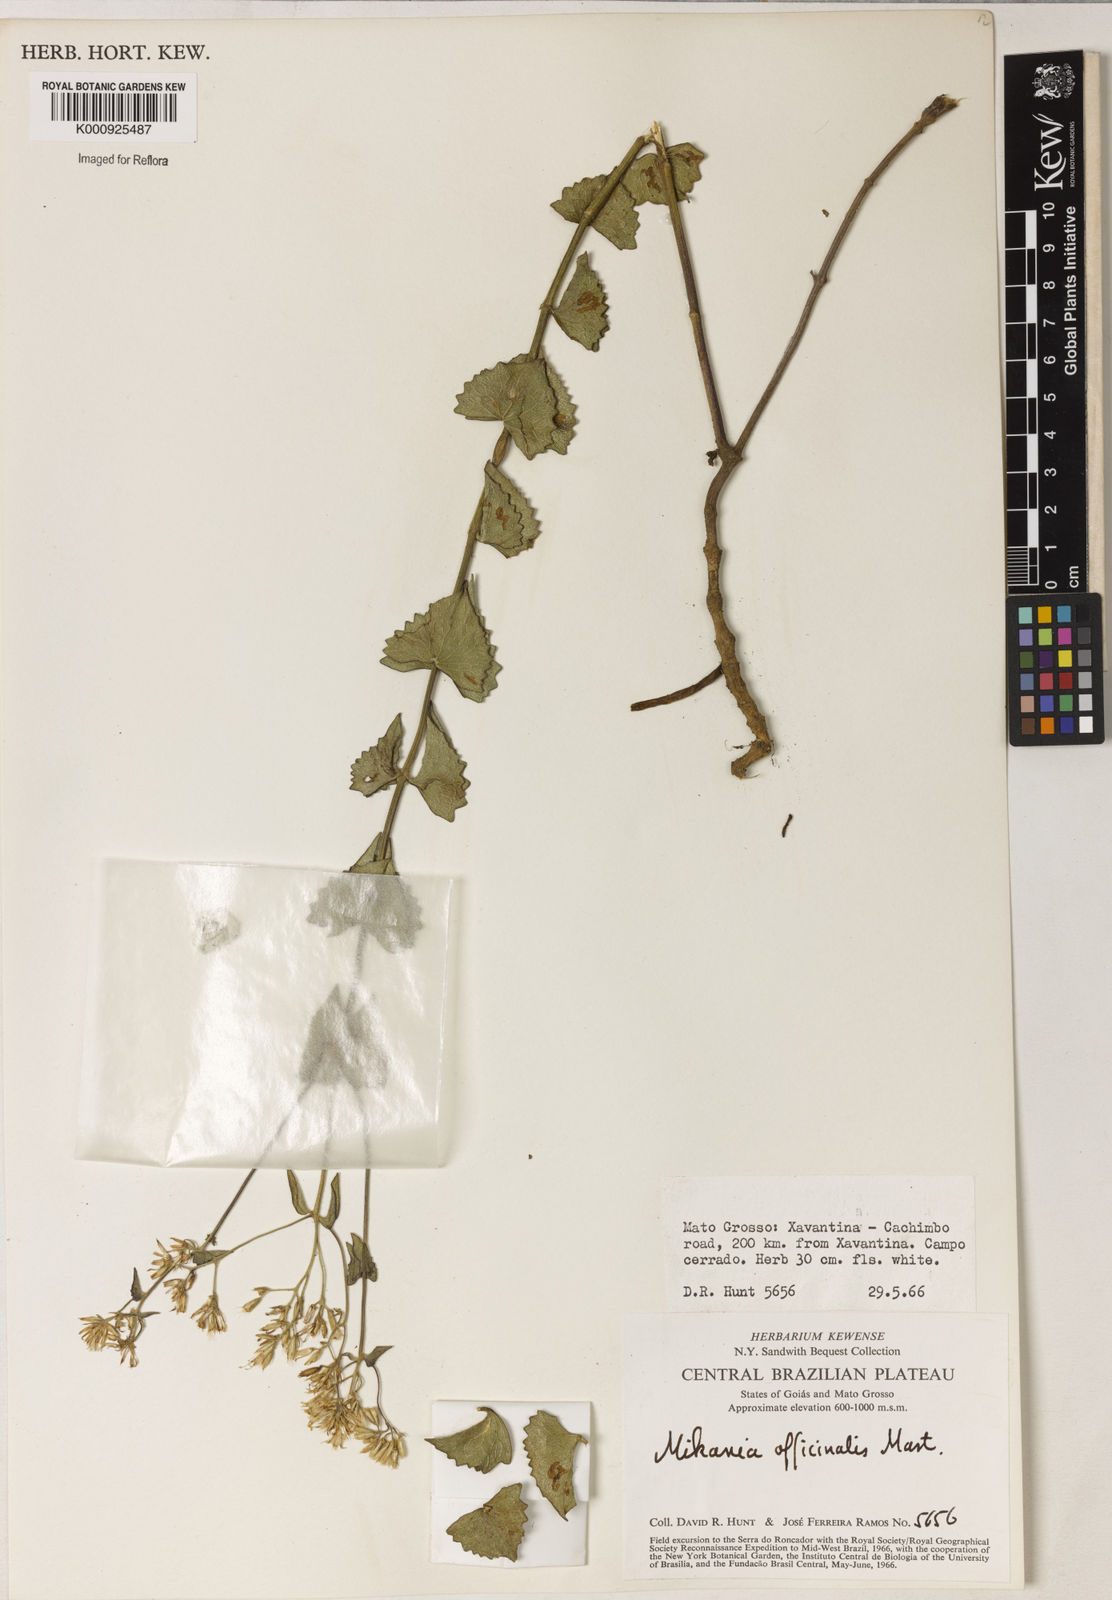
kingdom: Plantae
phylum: Tracheophyta
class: Magnoliopsida
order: Asterales
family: Asteraceae
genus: Mikania
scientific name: Mikania officinalis
